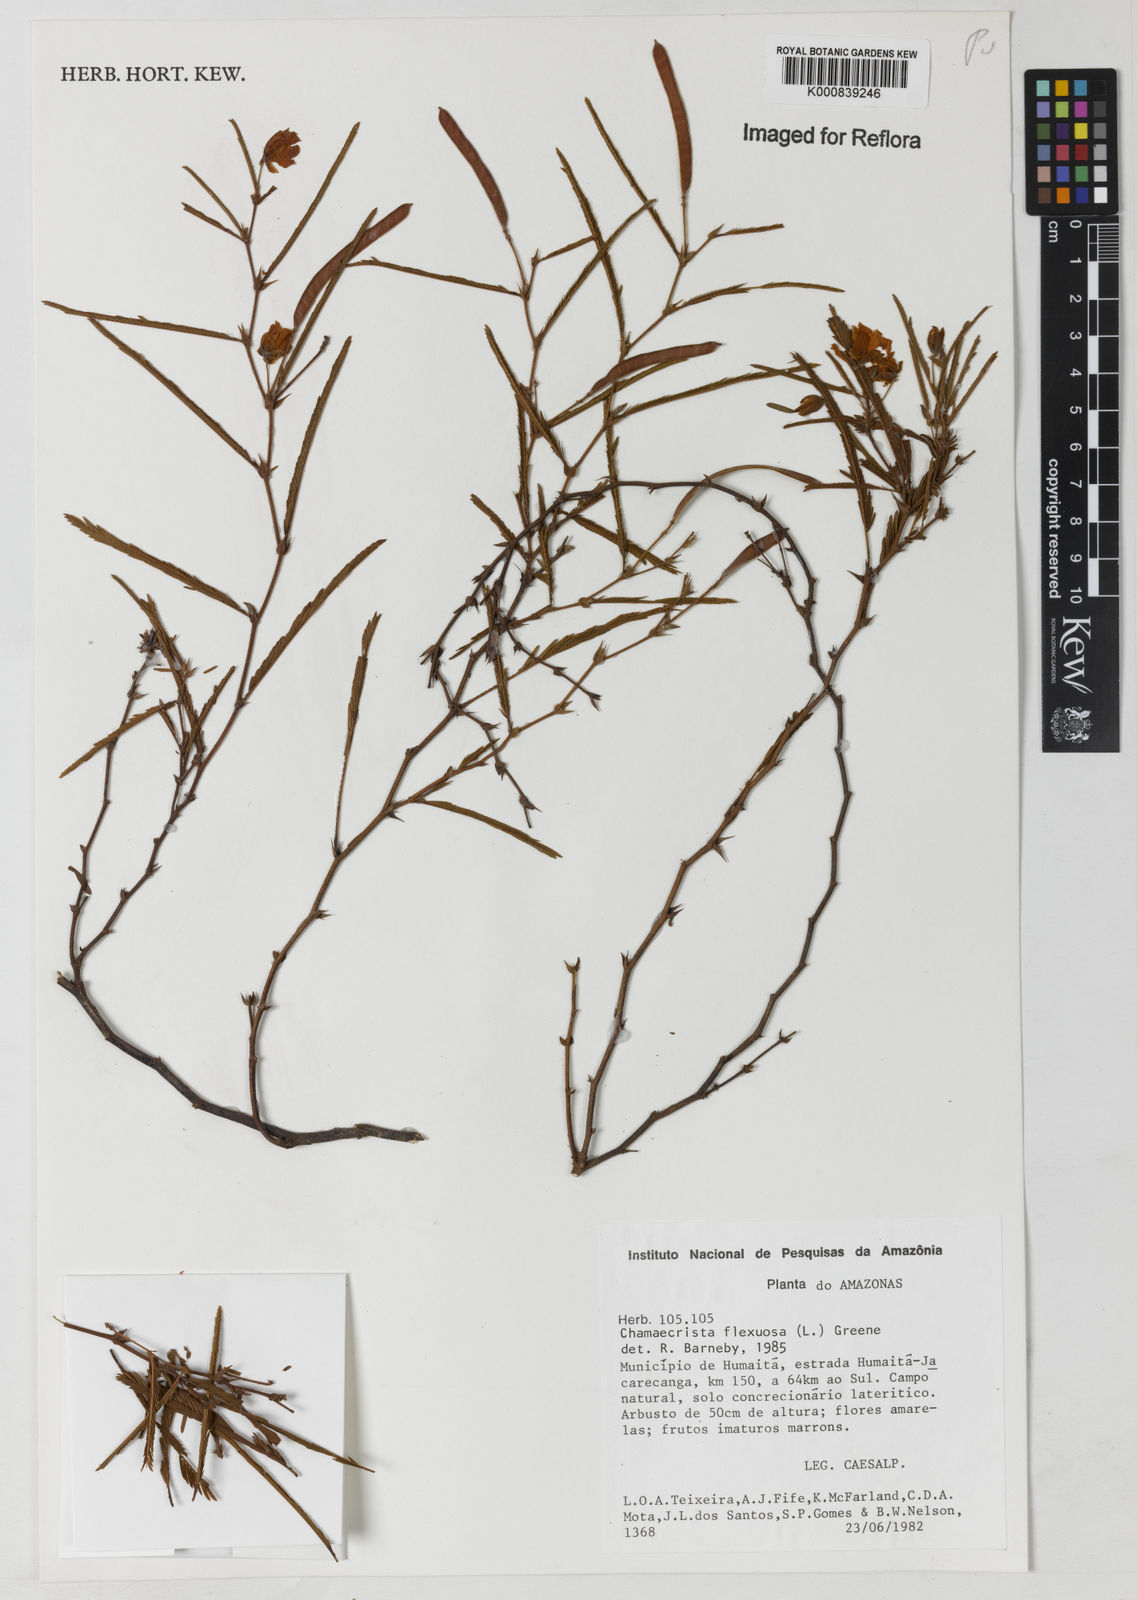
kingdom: Plantae
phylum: Tracheophyta
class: Magnoliopsida
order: Fabales
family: Fabaceae
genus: Chamaecrista
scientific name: Chamaecrista flexuosa
